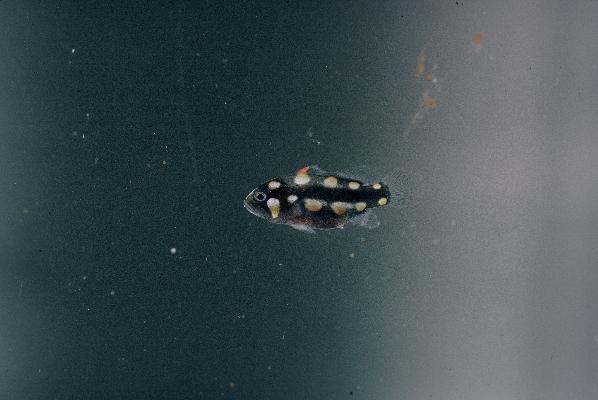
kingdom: Animalia
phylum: Chordata
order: Perciformes
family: Serranidae
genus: Grammistes
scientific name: Grammistes sexlineatus
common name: Sixline soapfish
